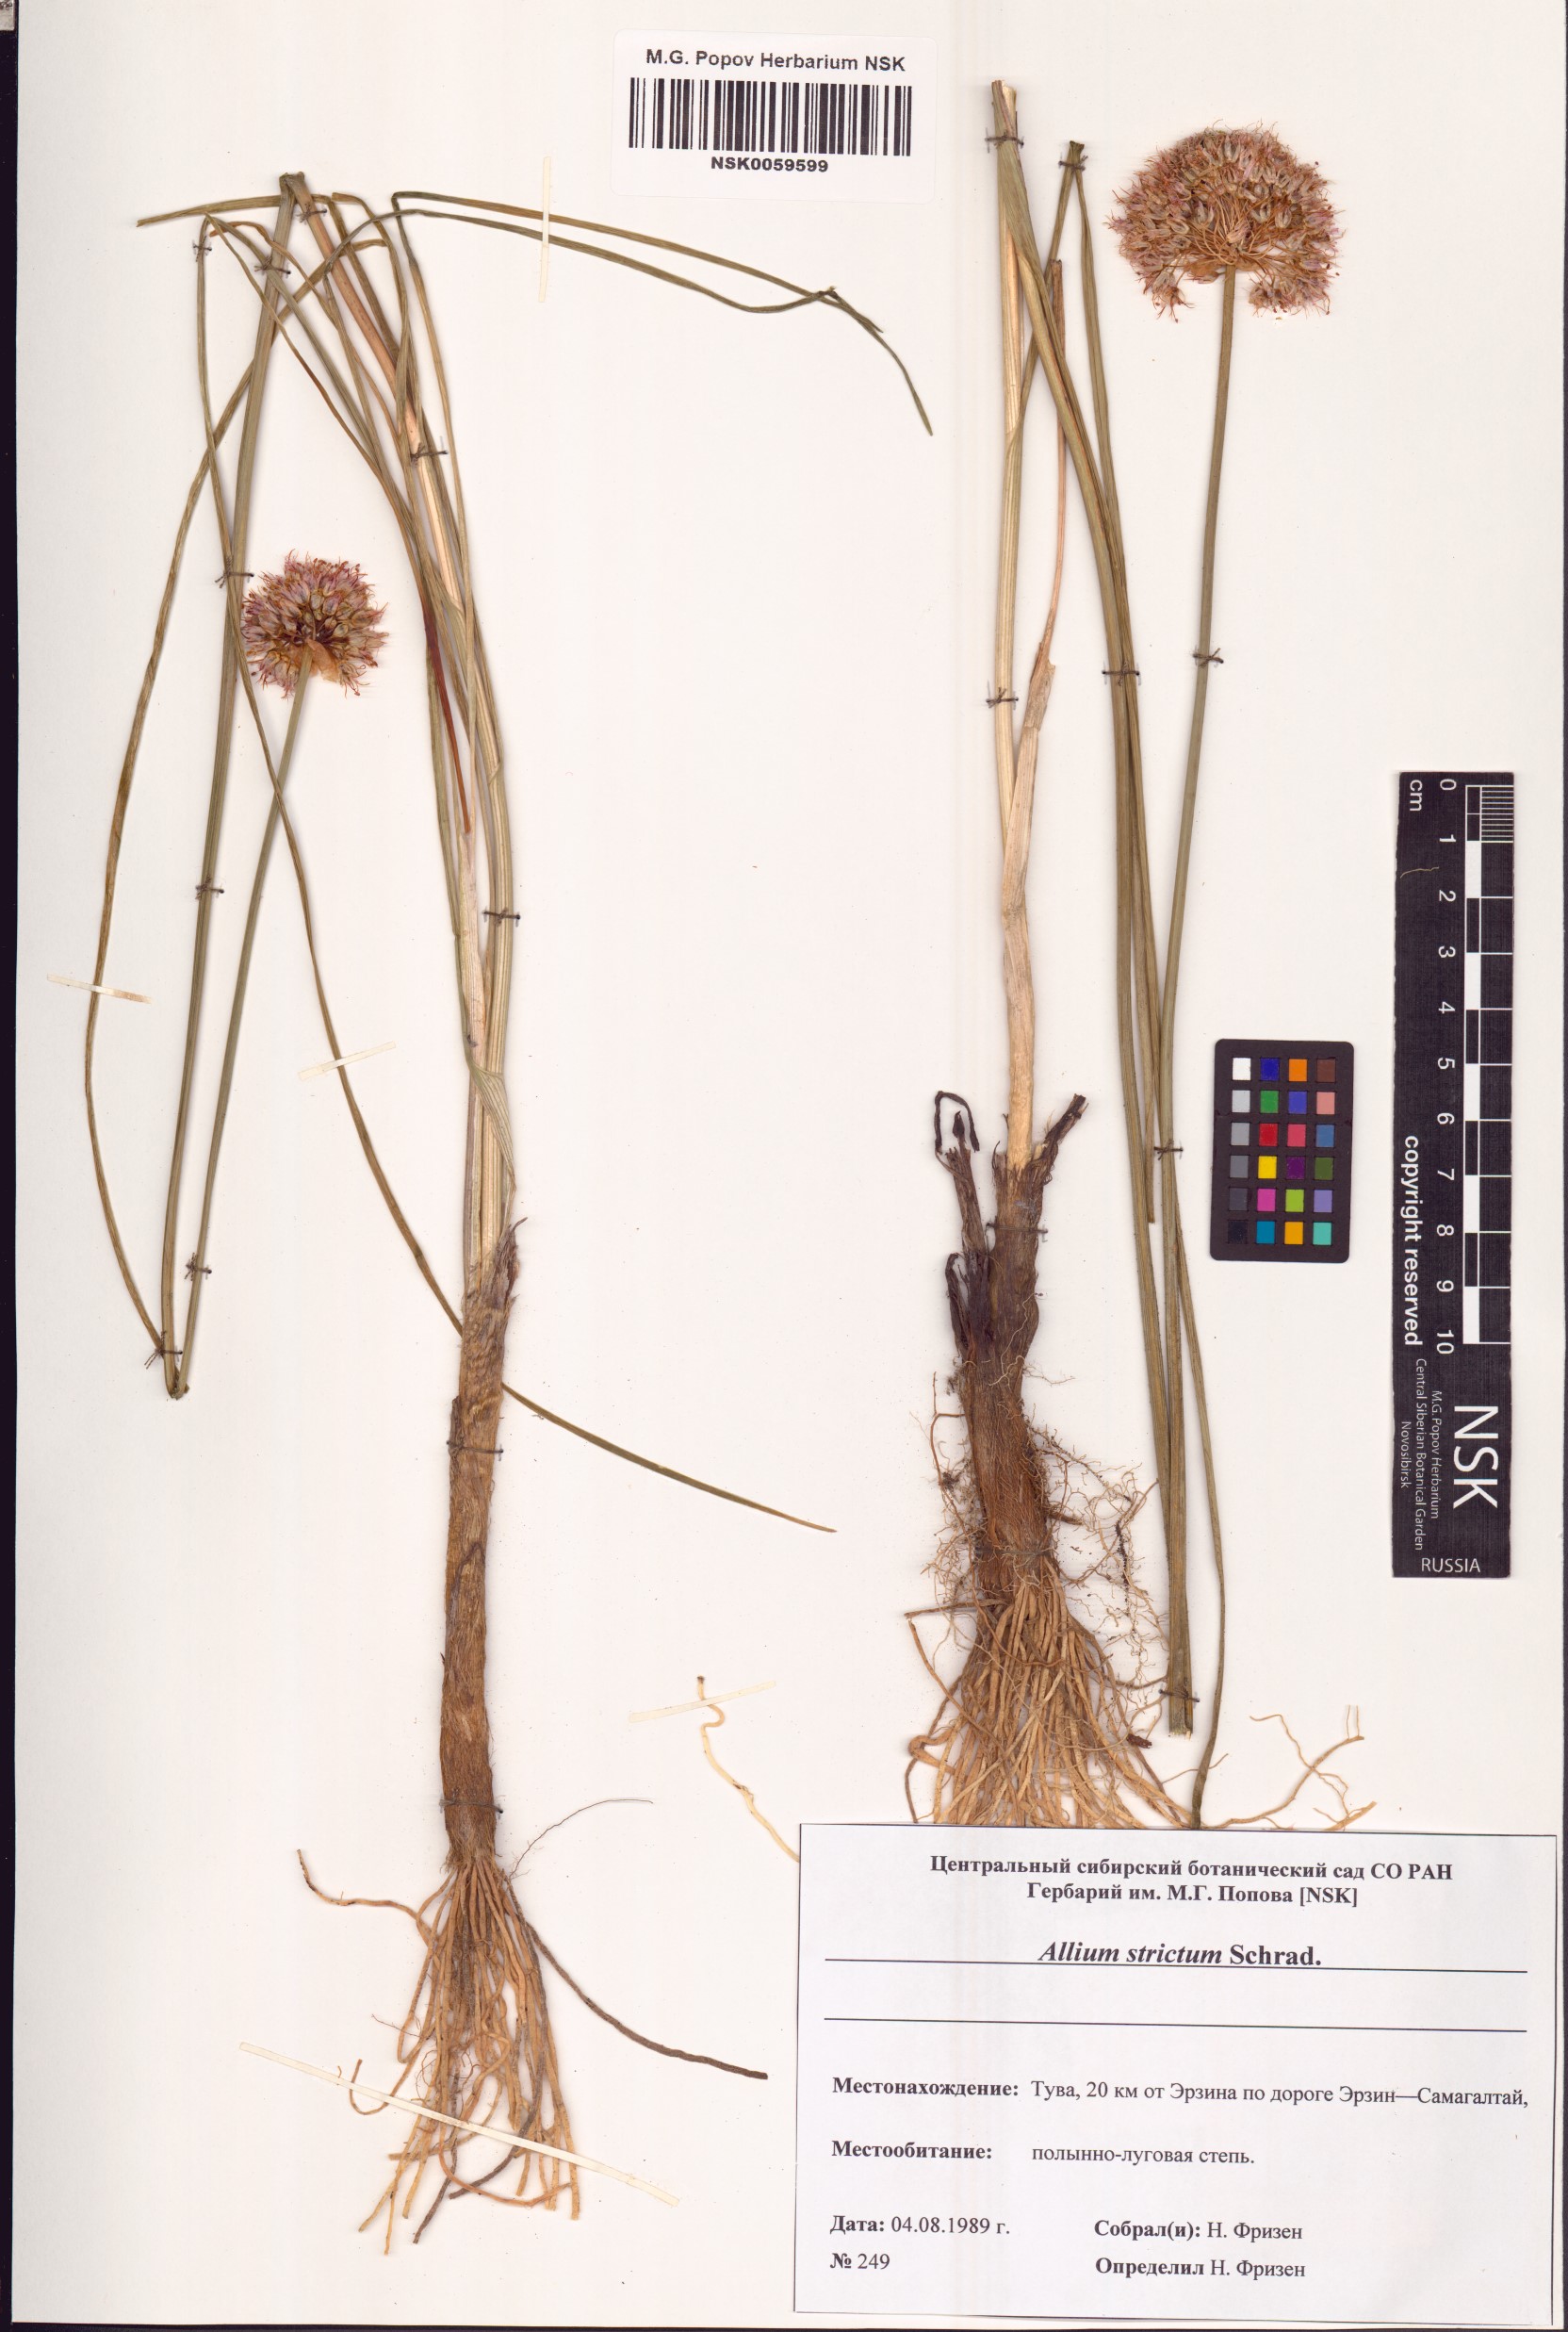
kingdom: Plantae
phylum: Tracheophyta
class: Liliopsida
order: Asparagales
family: Amaryllidaceae
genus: Allium
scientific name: Allium strictum
